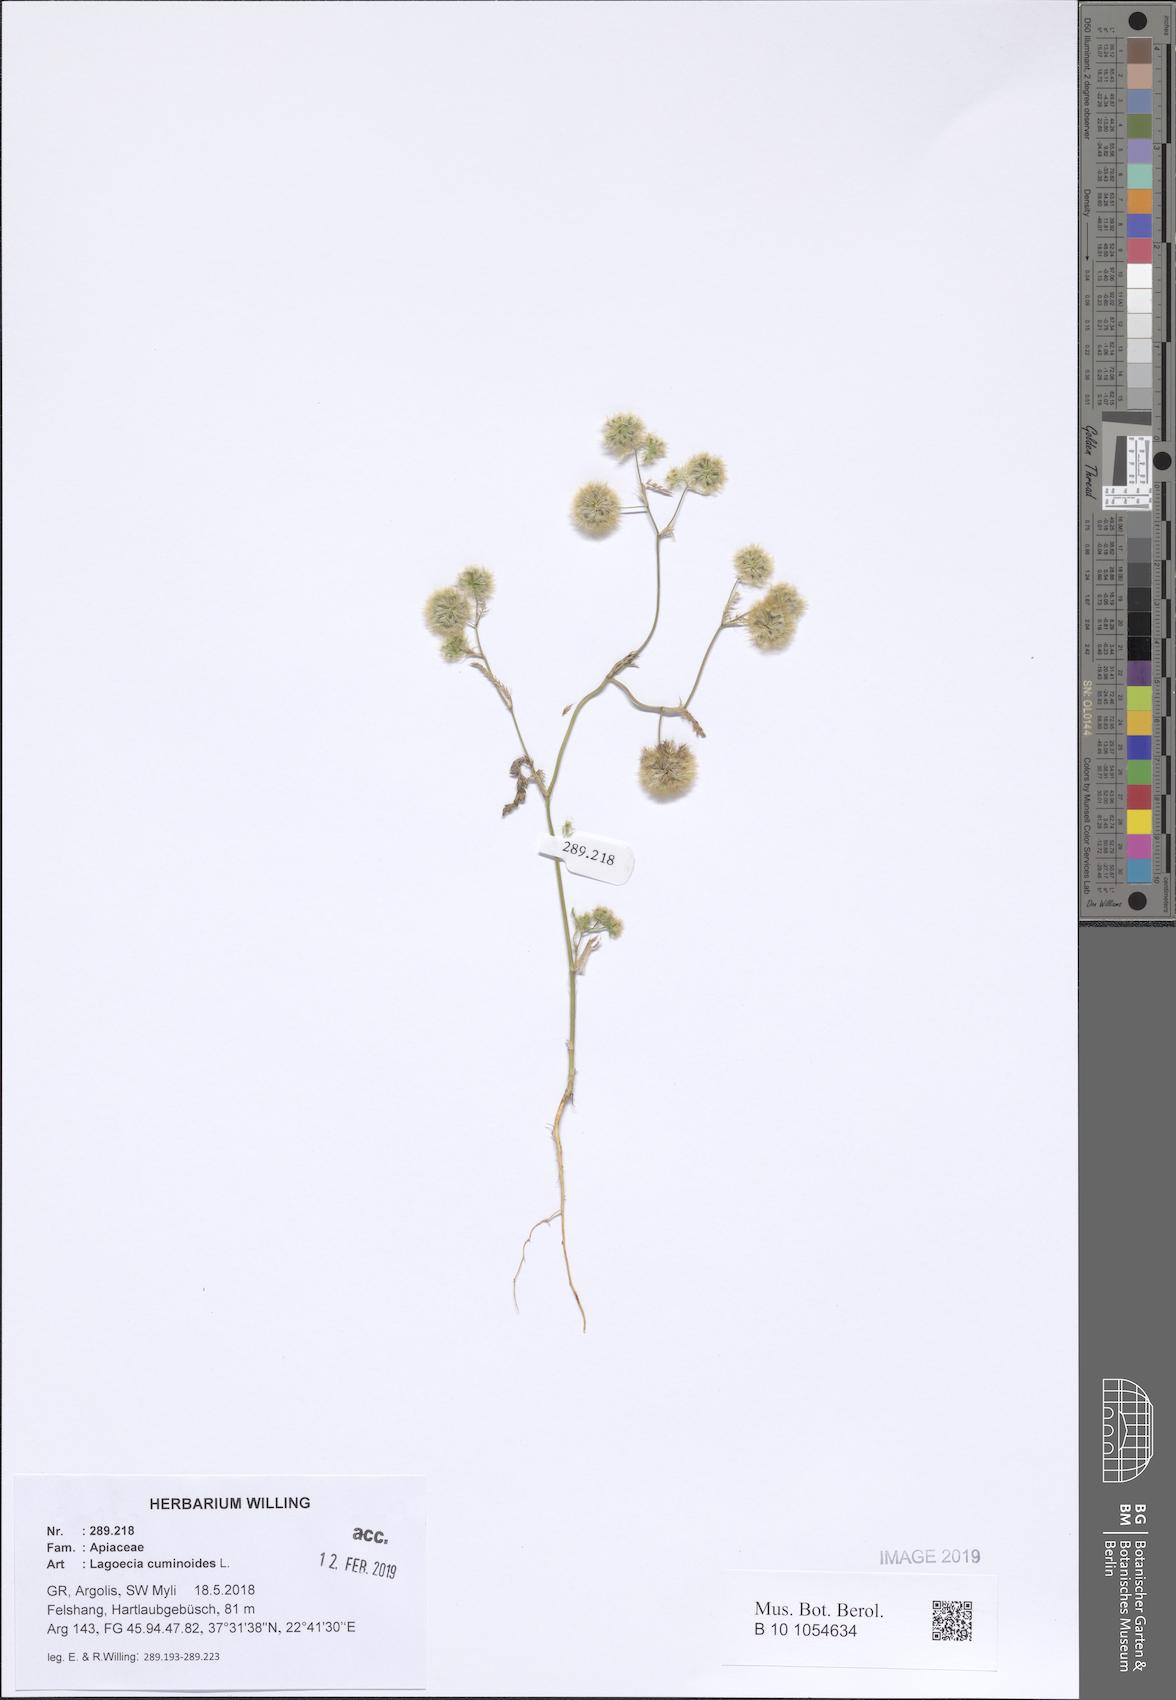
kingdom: Plantae
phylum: Tracheophyta
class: Magnoliopsida
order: Apiales
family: Apiaceae
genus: Lagoecia
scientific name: Lagoecia cuminoides
